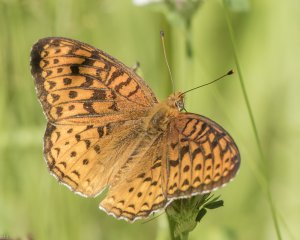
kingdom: Animalia
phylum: Arthropoda
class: Insecta
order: Lepidoptera
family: Nymphalidae
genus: Speyeria
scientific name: Speyeria atlantis
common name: Atlantis Fritillary
